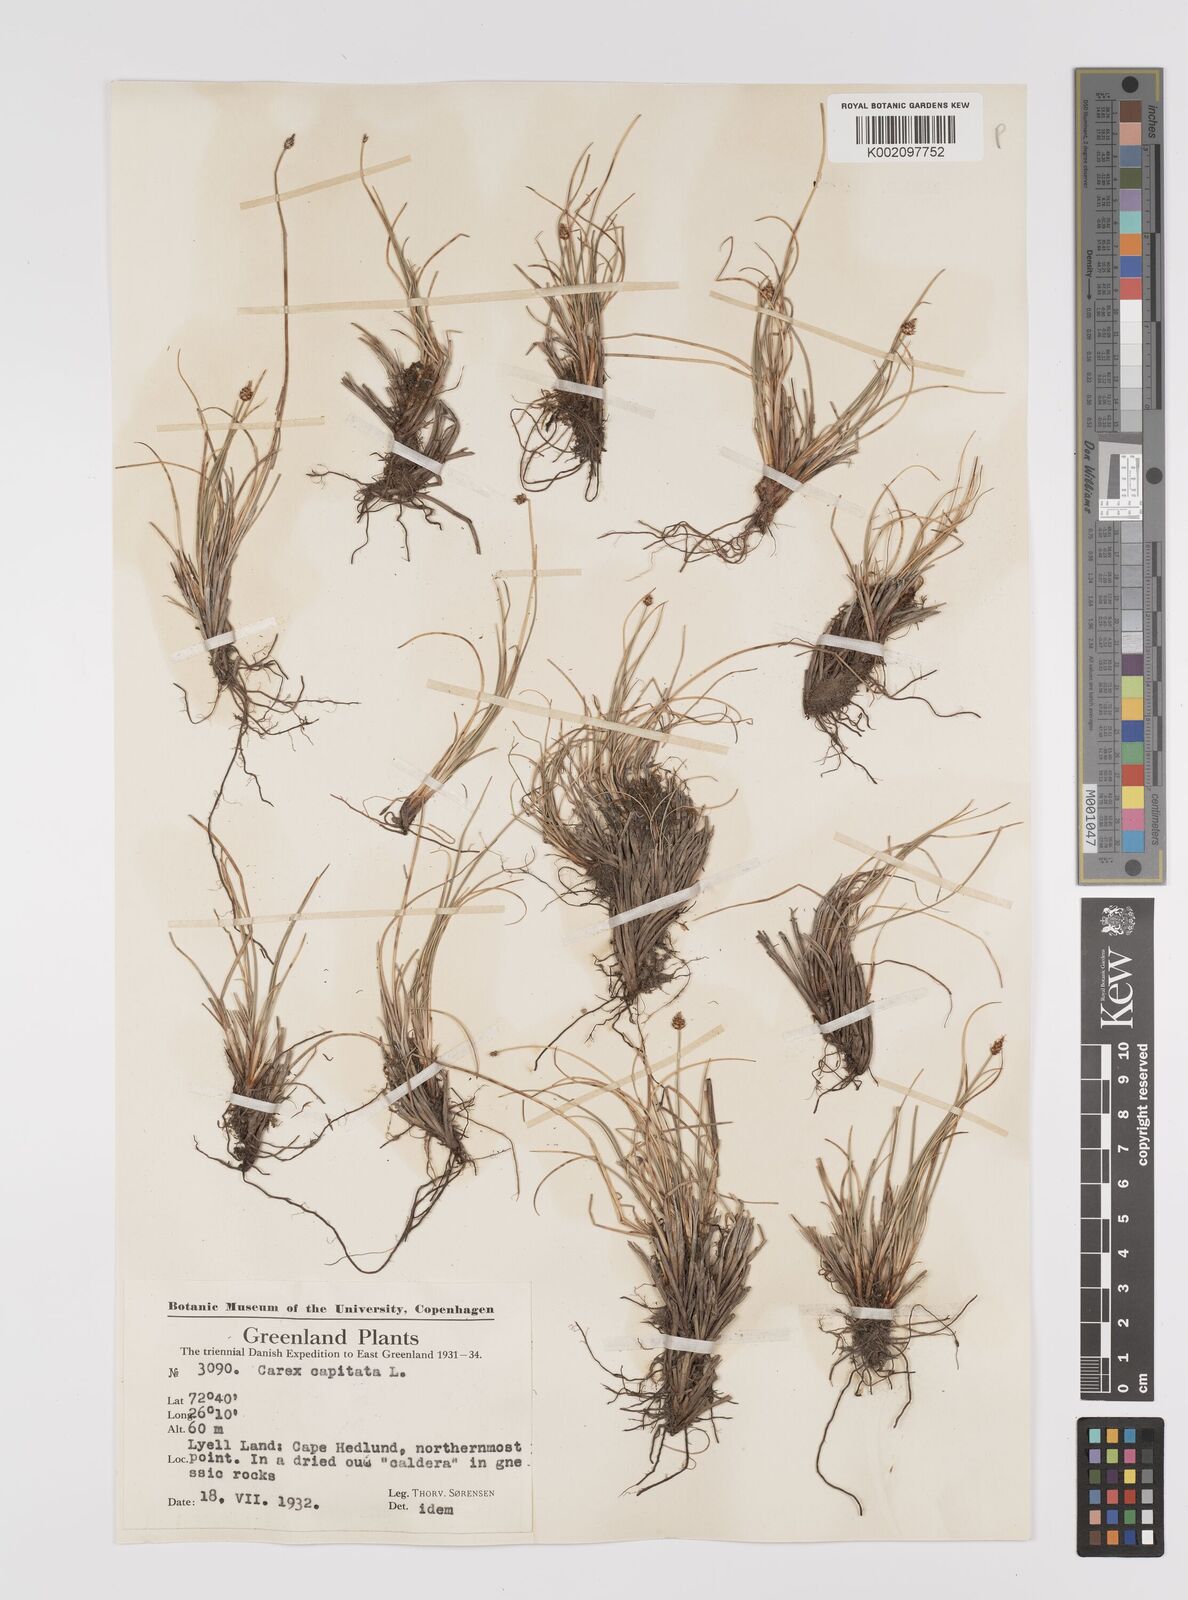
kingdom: Plantae
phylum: Tracheophyta
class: Liliopsida
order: Poales
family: Cyperaceae
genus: Carex
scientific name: Carex capitata
